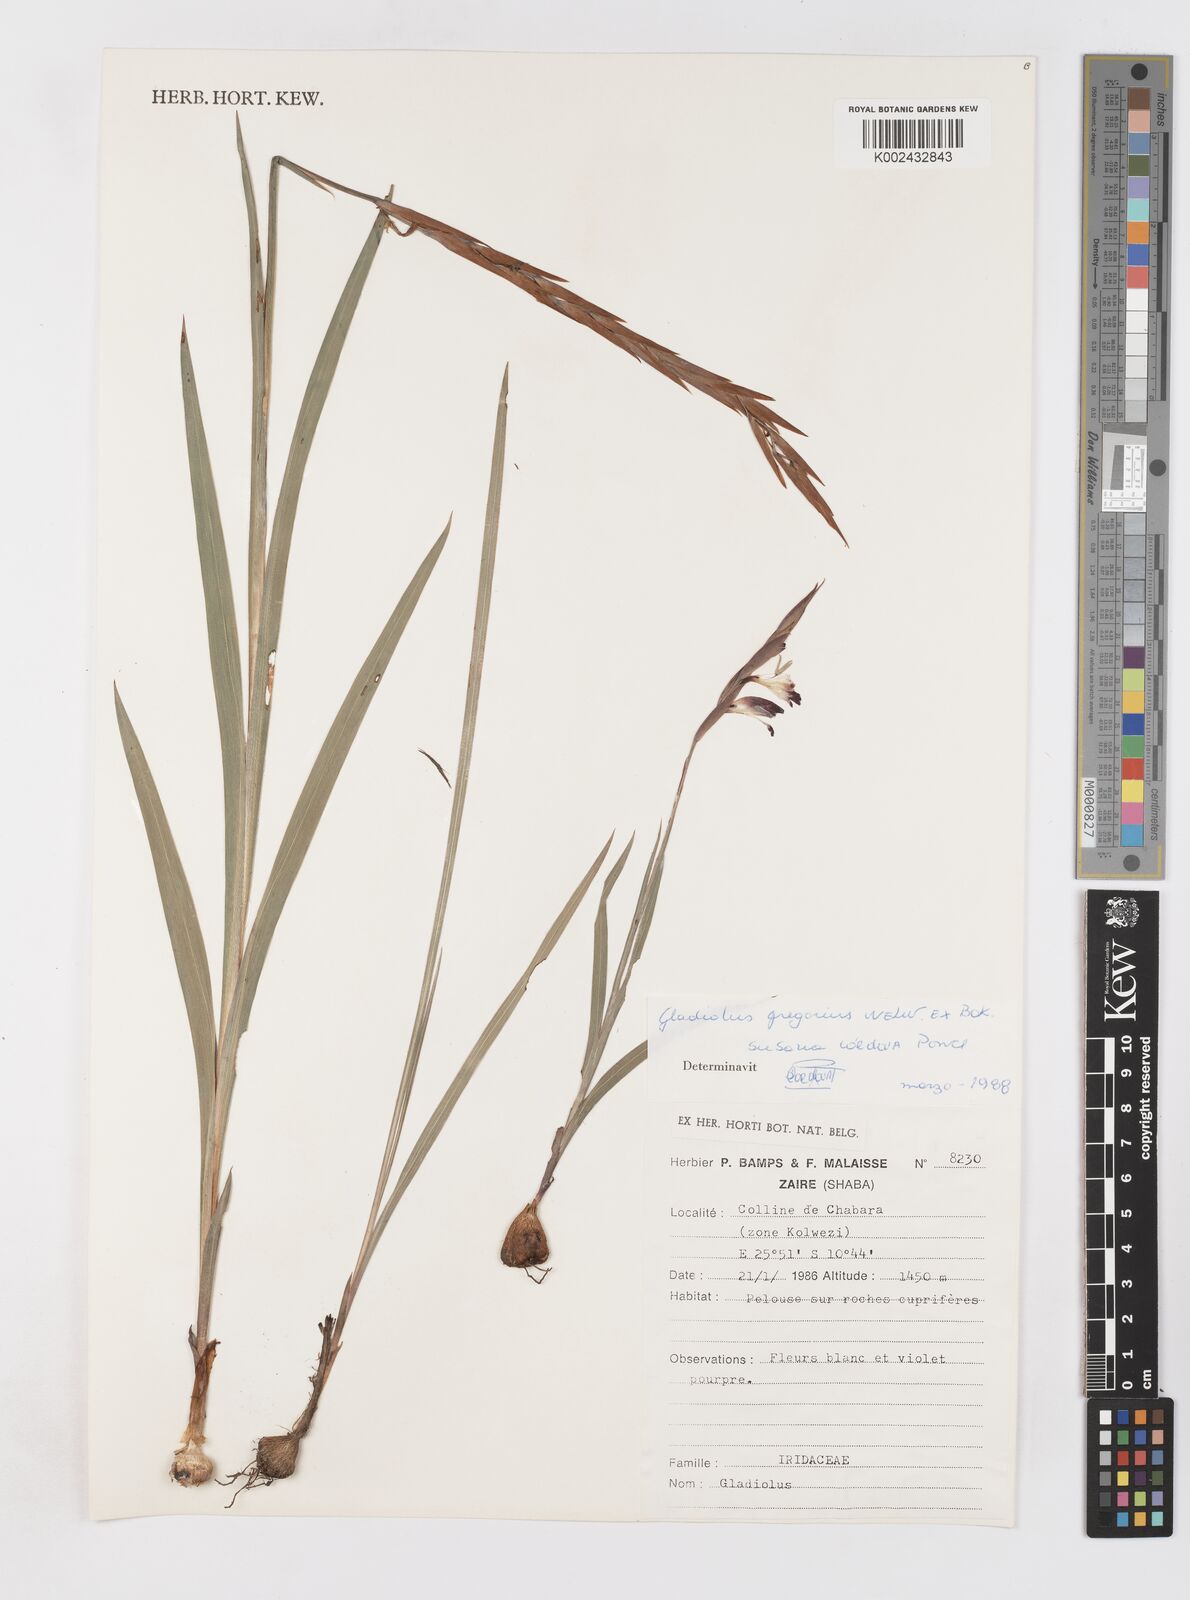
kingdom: Plantae
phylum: Tracheophyta
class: Liliopsida
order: Asparagales
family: Iridaceae
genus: Gladiolus
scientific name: Gladiolus gregarius
